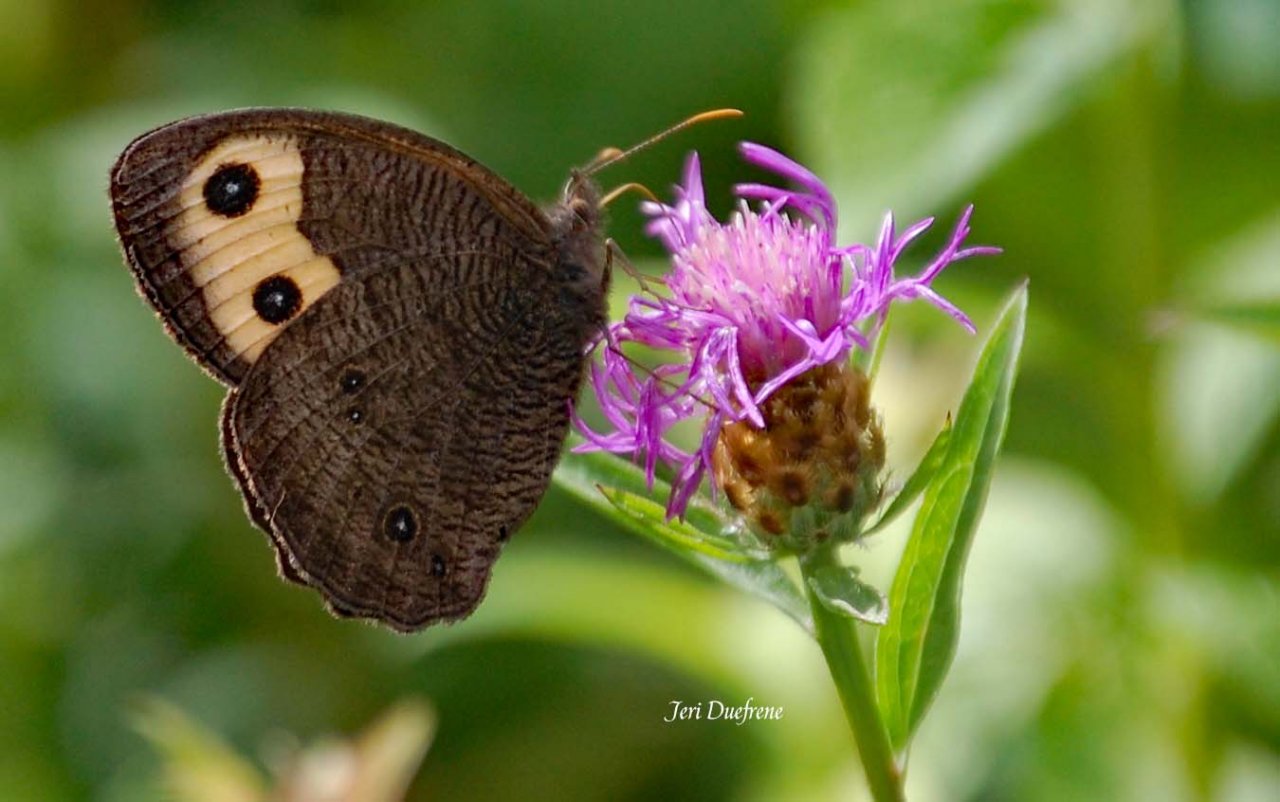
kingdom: Animalia
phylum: Arthropoda
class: Insecta
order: Lepidoptera
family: Nymphalidae
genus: Cercyonis
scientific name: Cercyonis pegala
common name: Common Wood-Nymph
